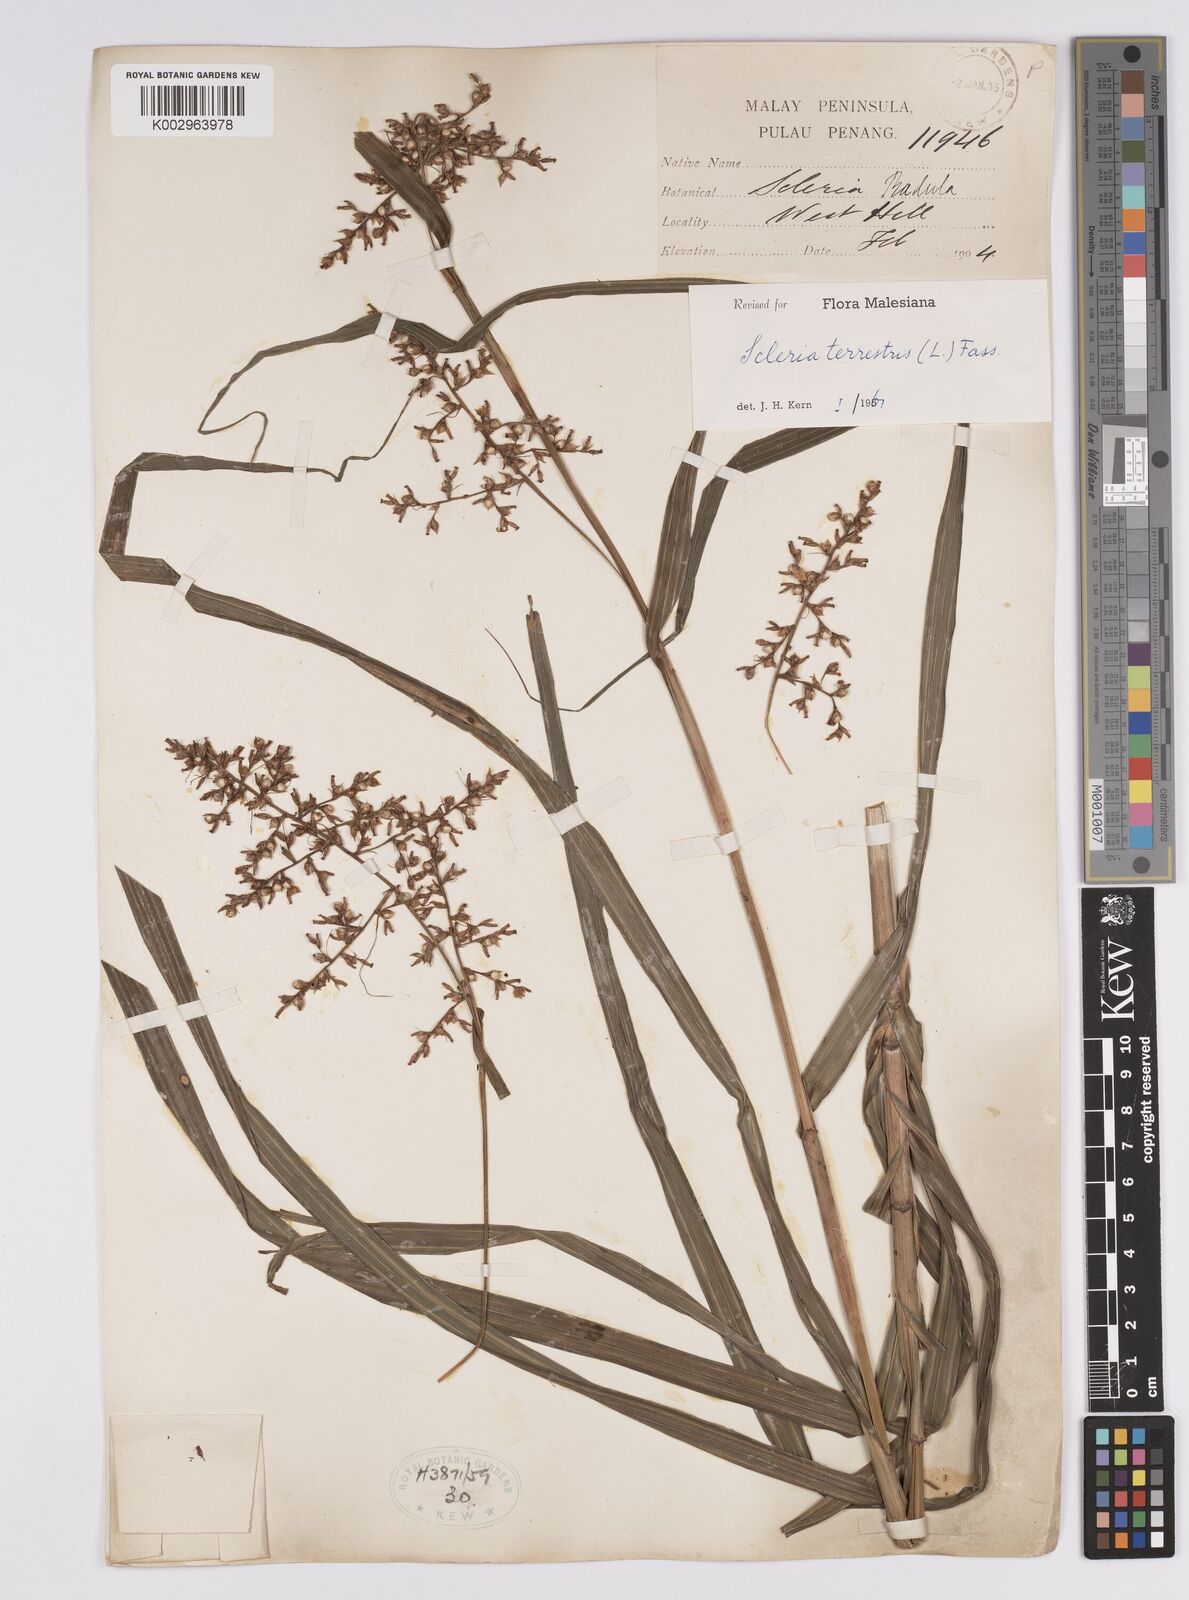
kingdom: Plantae
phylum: Tracheophyta
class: Liliopsida
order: Poales
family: Cyperaceae
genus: Scleria
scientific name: Scleria terrestris
